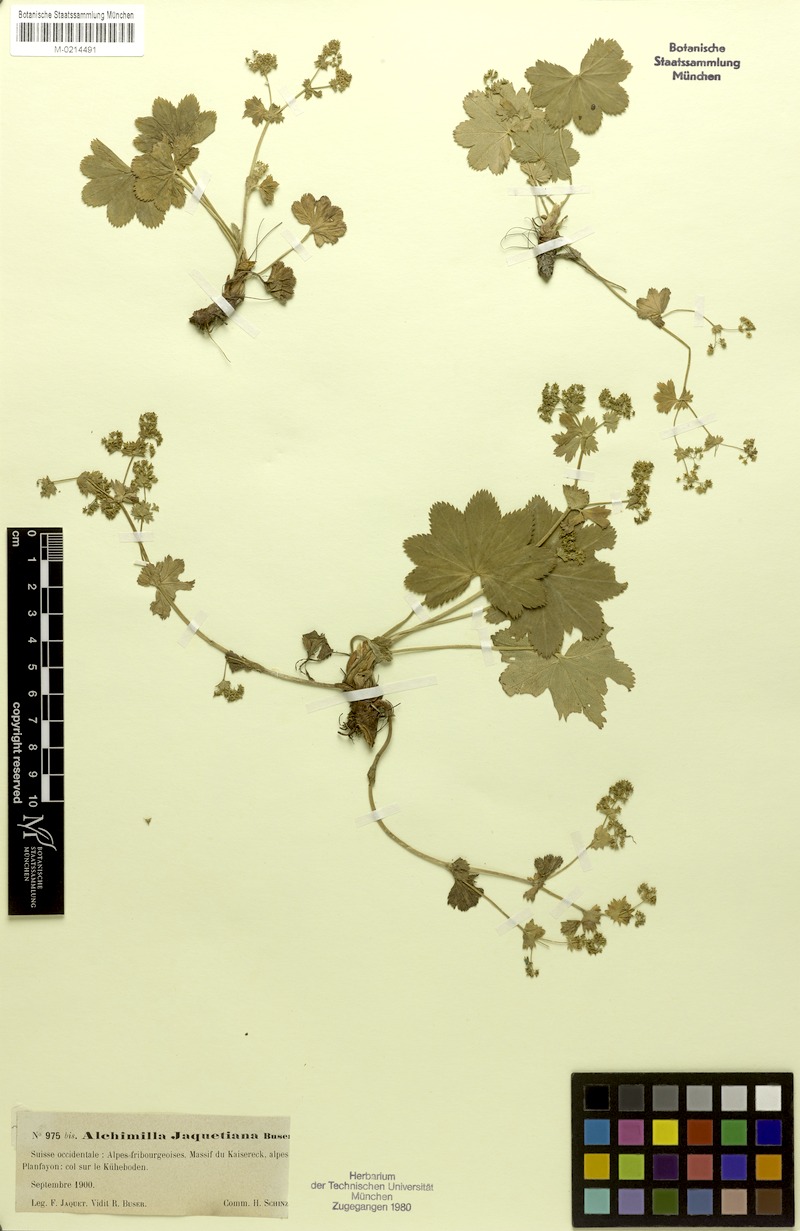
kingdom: Plantae
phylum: Tracheophyta
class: Magnoliopsida
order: Rosales
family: Rosaceae
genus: Alchemilla
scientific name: Alchemilla jaquetiana
